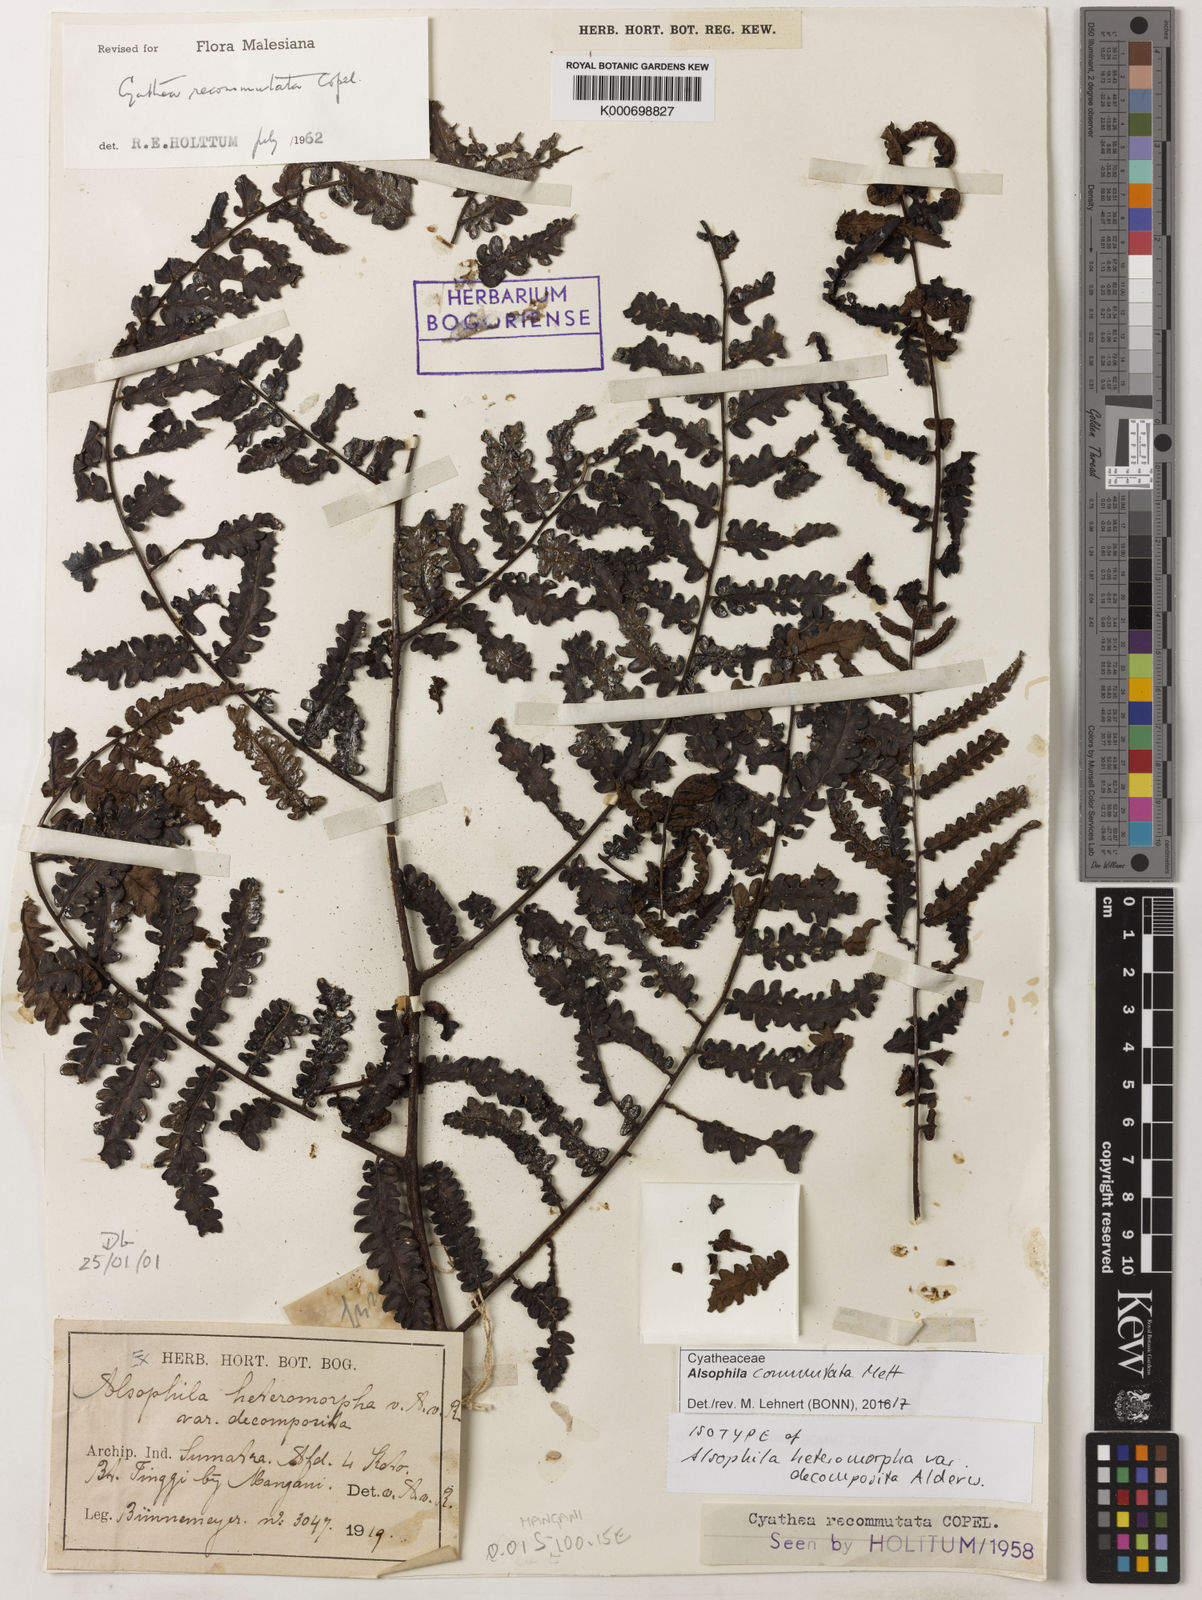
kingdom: Plantae
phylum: Tracheophyta
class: Polypodiopsida
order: Cyatheales
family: Cyatheaceae
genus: Gymnosphaera
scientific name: Gymnosphaera commutata
